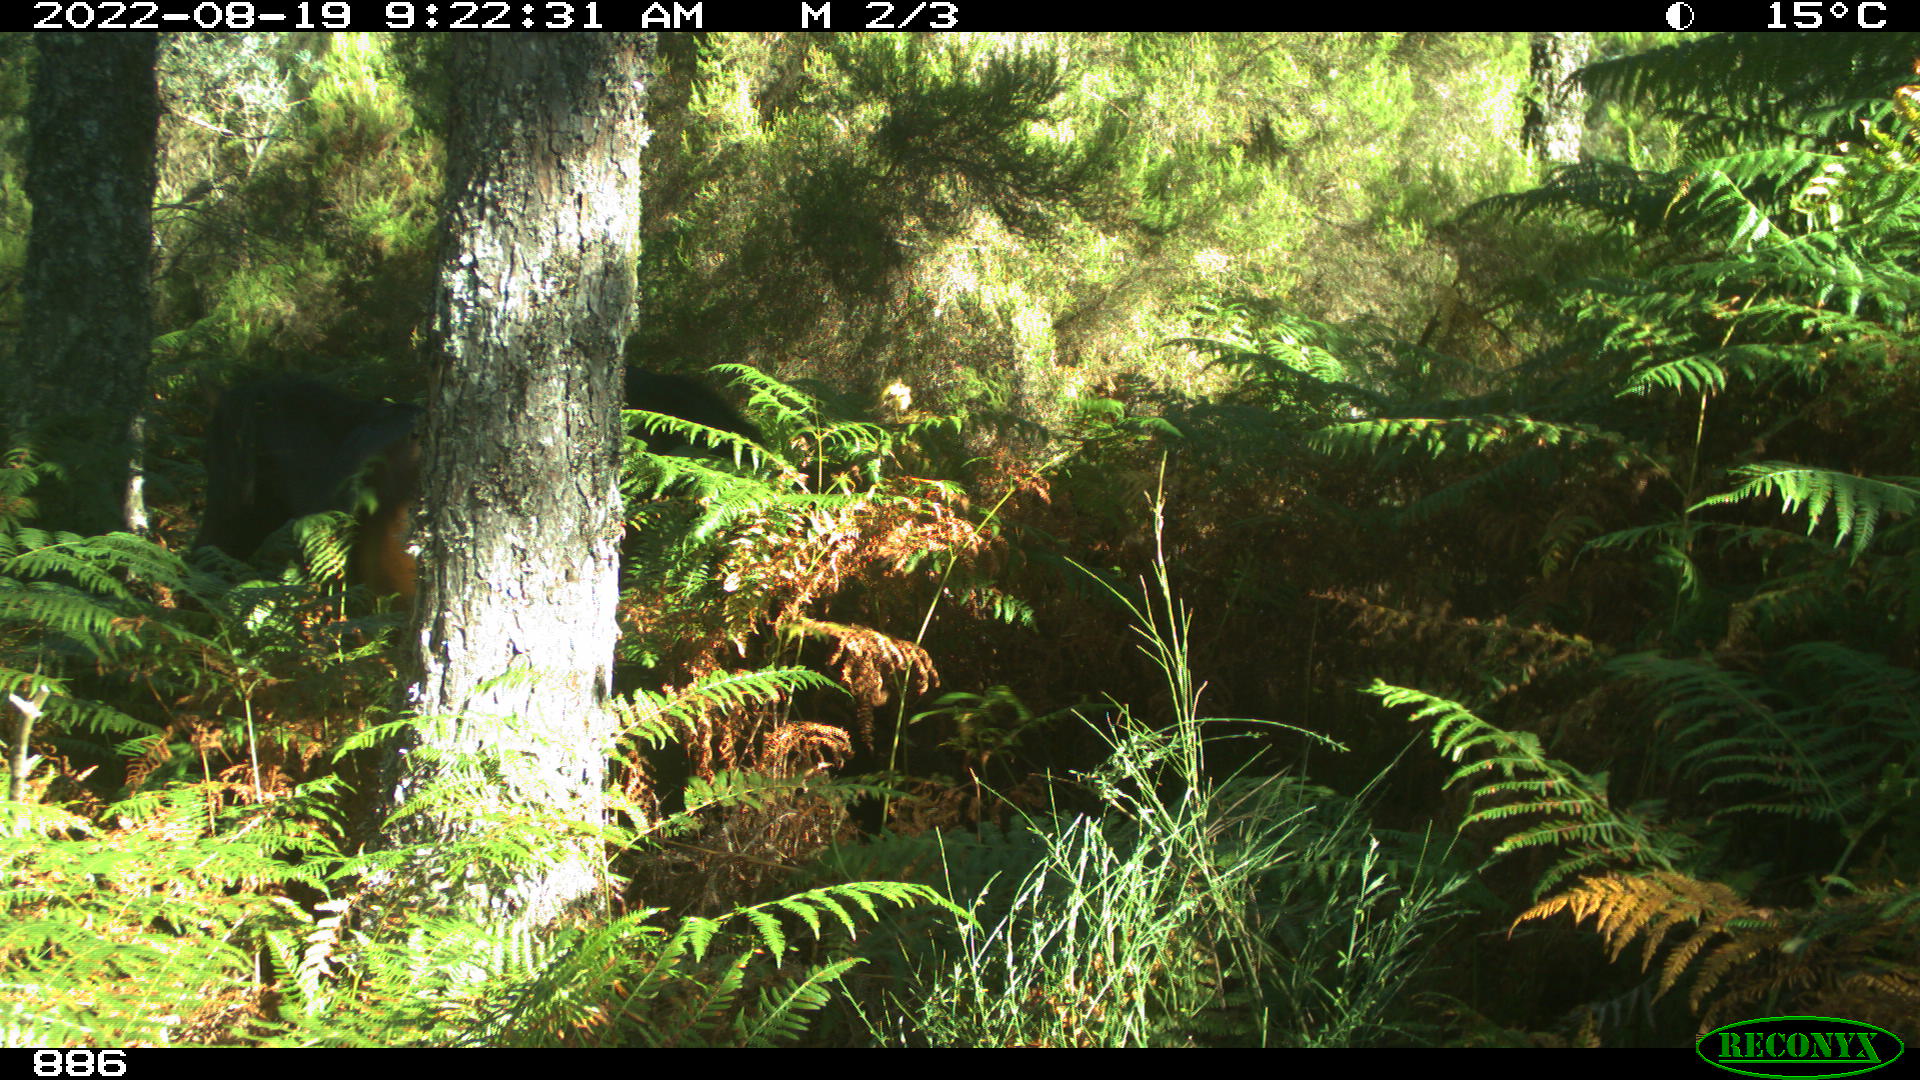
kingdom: Animalia
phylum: Chordata
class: Mammalia
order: Perissodactyla
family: Equidae
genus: Equus
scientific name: Equus caballus
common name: Horse
